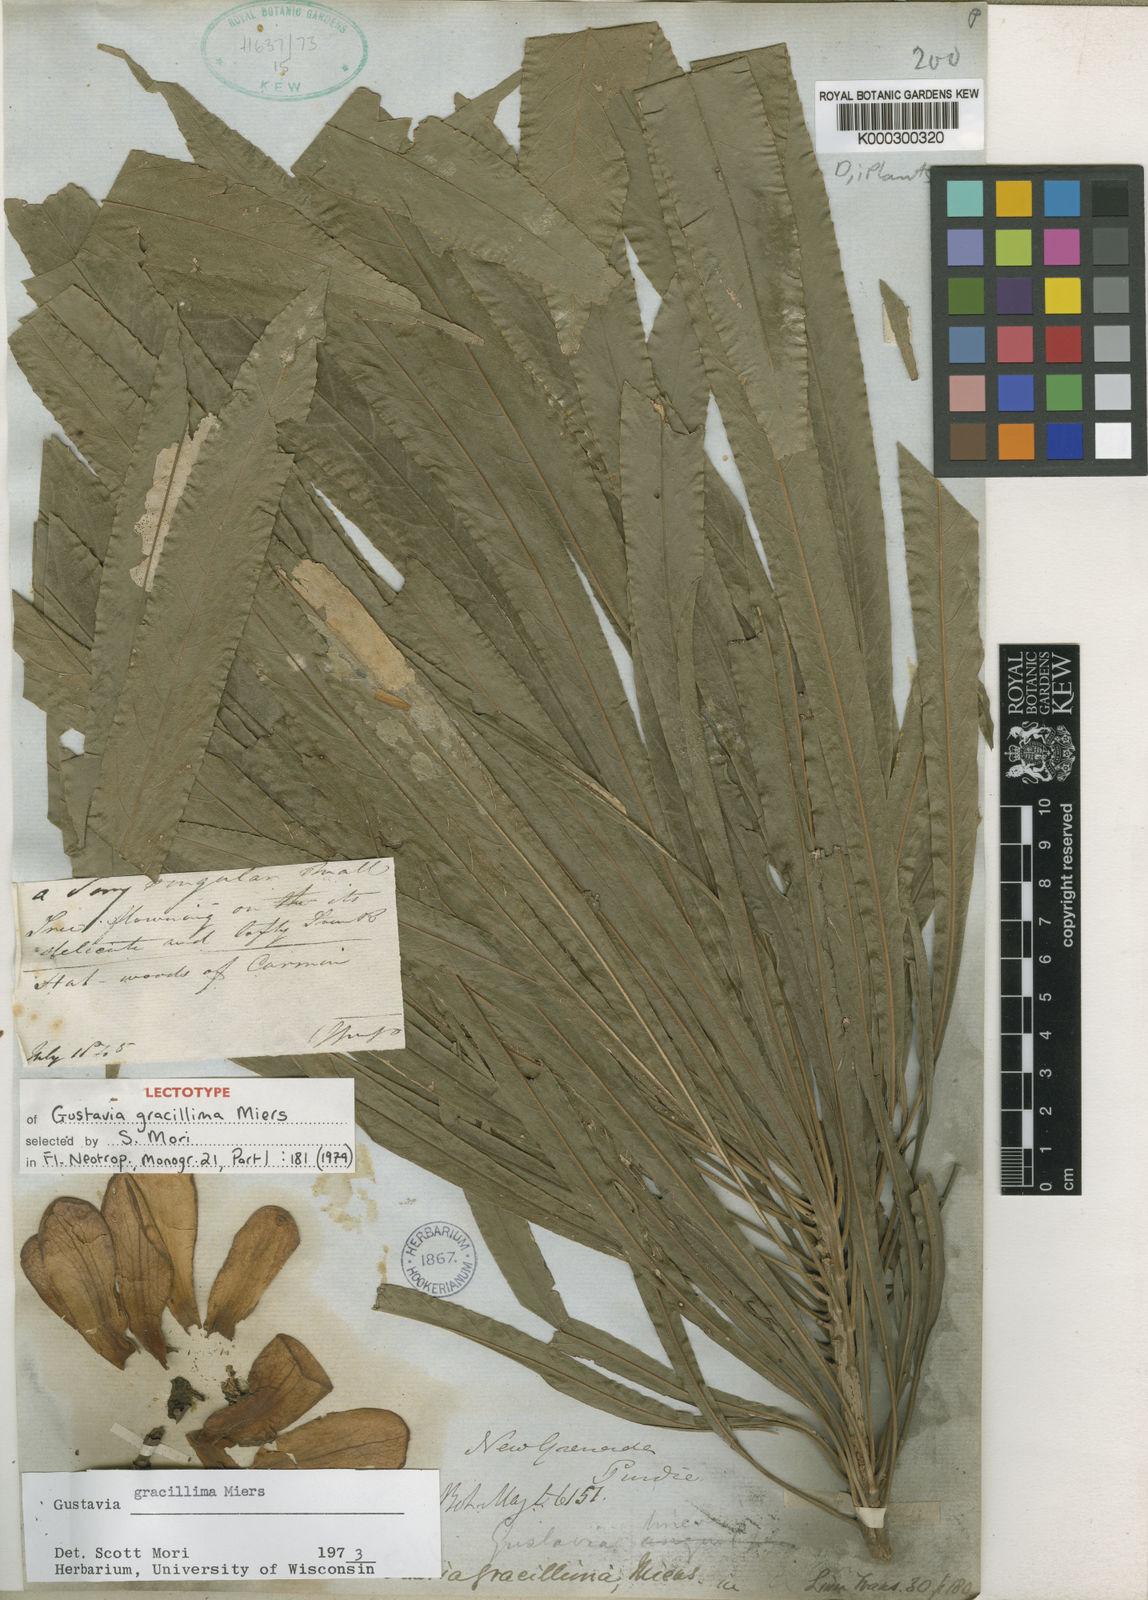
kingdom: Plantae
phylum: Tracheophyta
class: Magnoliopsida
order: Ericales
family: Lecythidaceae
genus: Gustavia
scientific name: Gustavia gracillima
